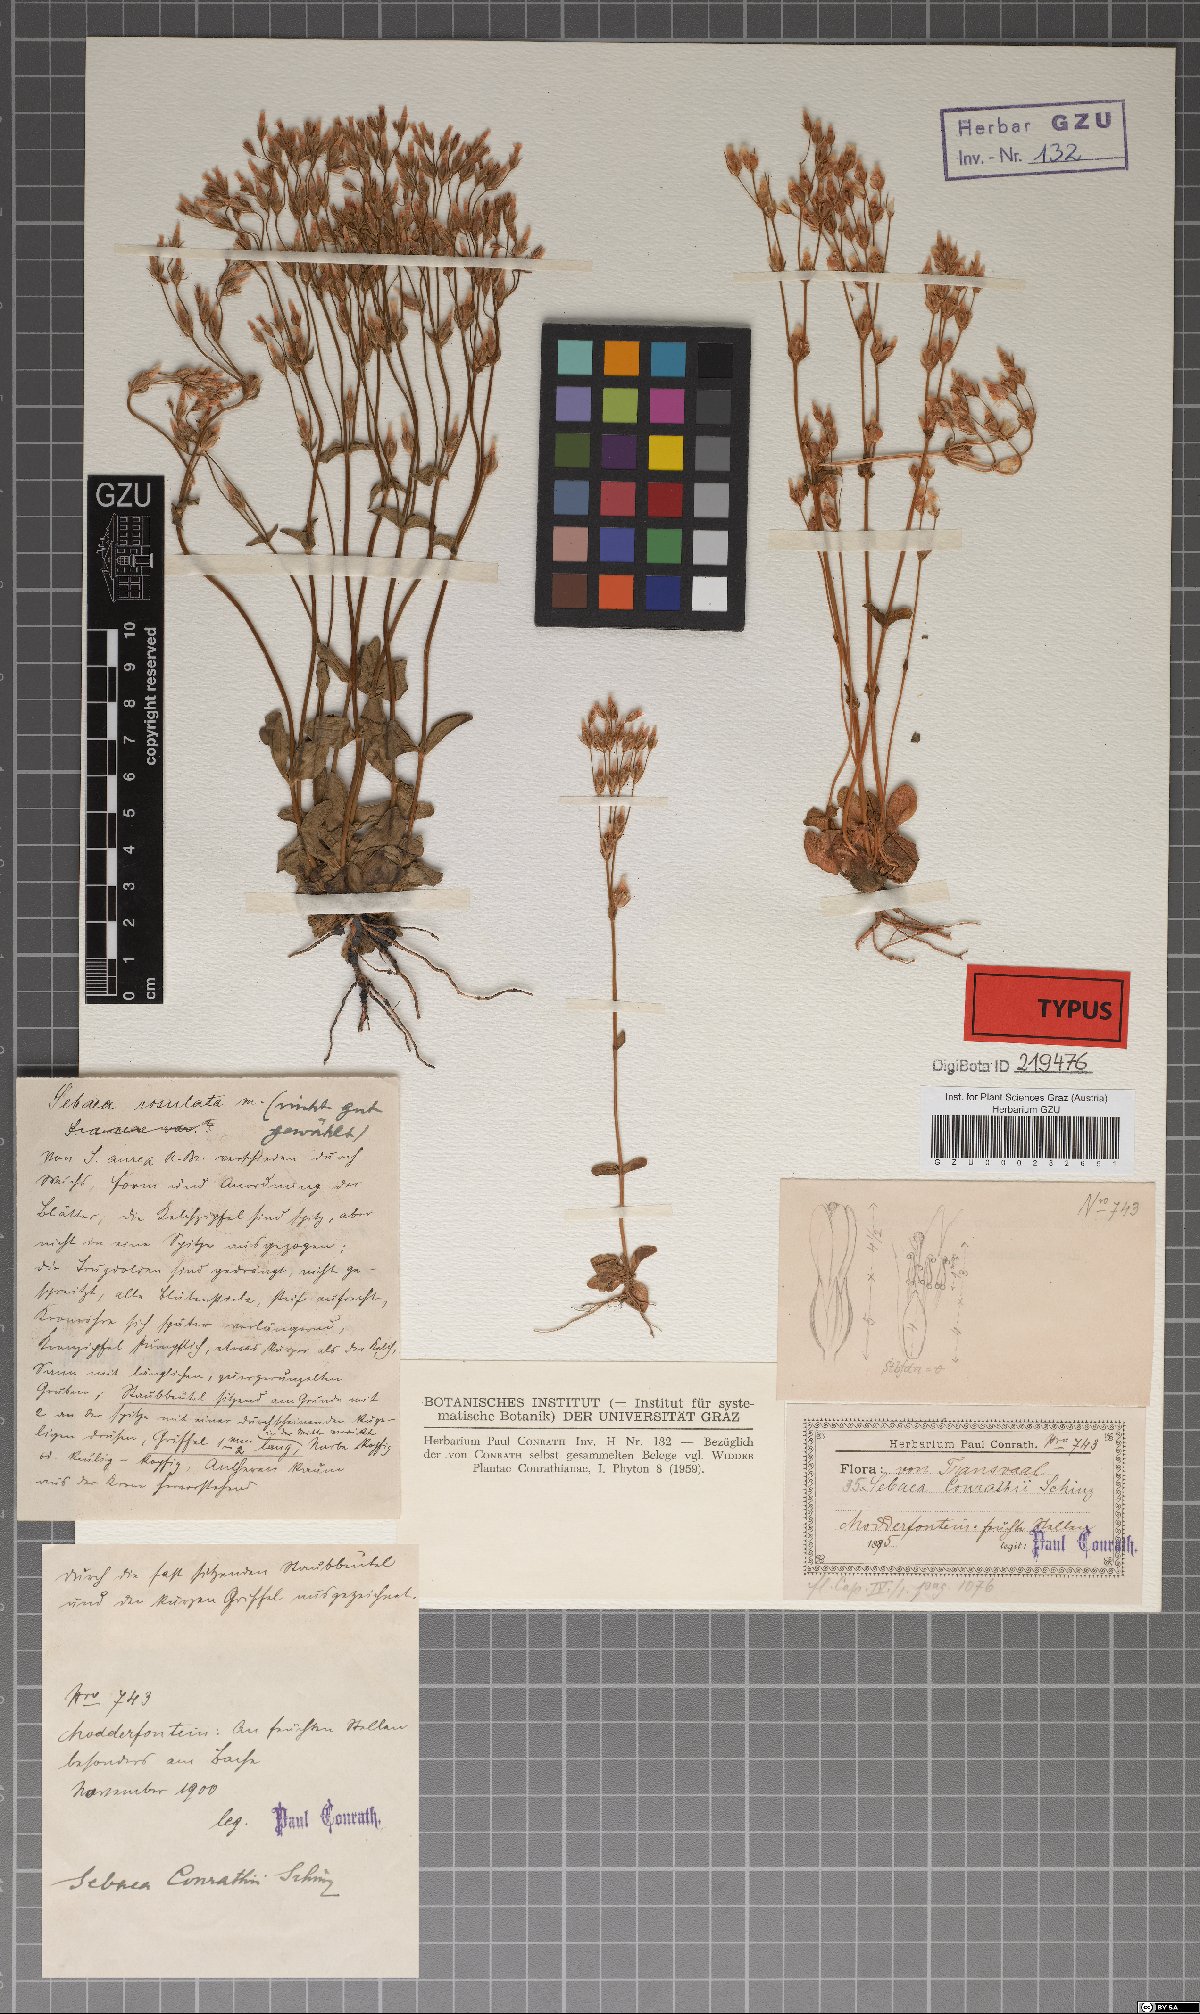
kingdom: Plantae
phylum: Tracheophyta
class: Magnoliopsida
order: Gentianales
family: Gentianaceae
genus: Sebaea
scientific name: Sebaea pentandra
